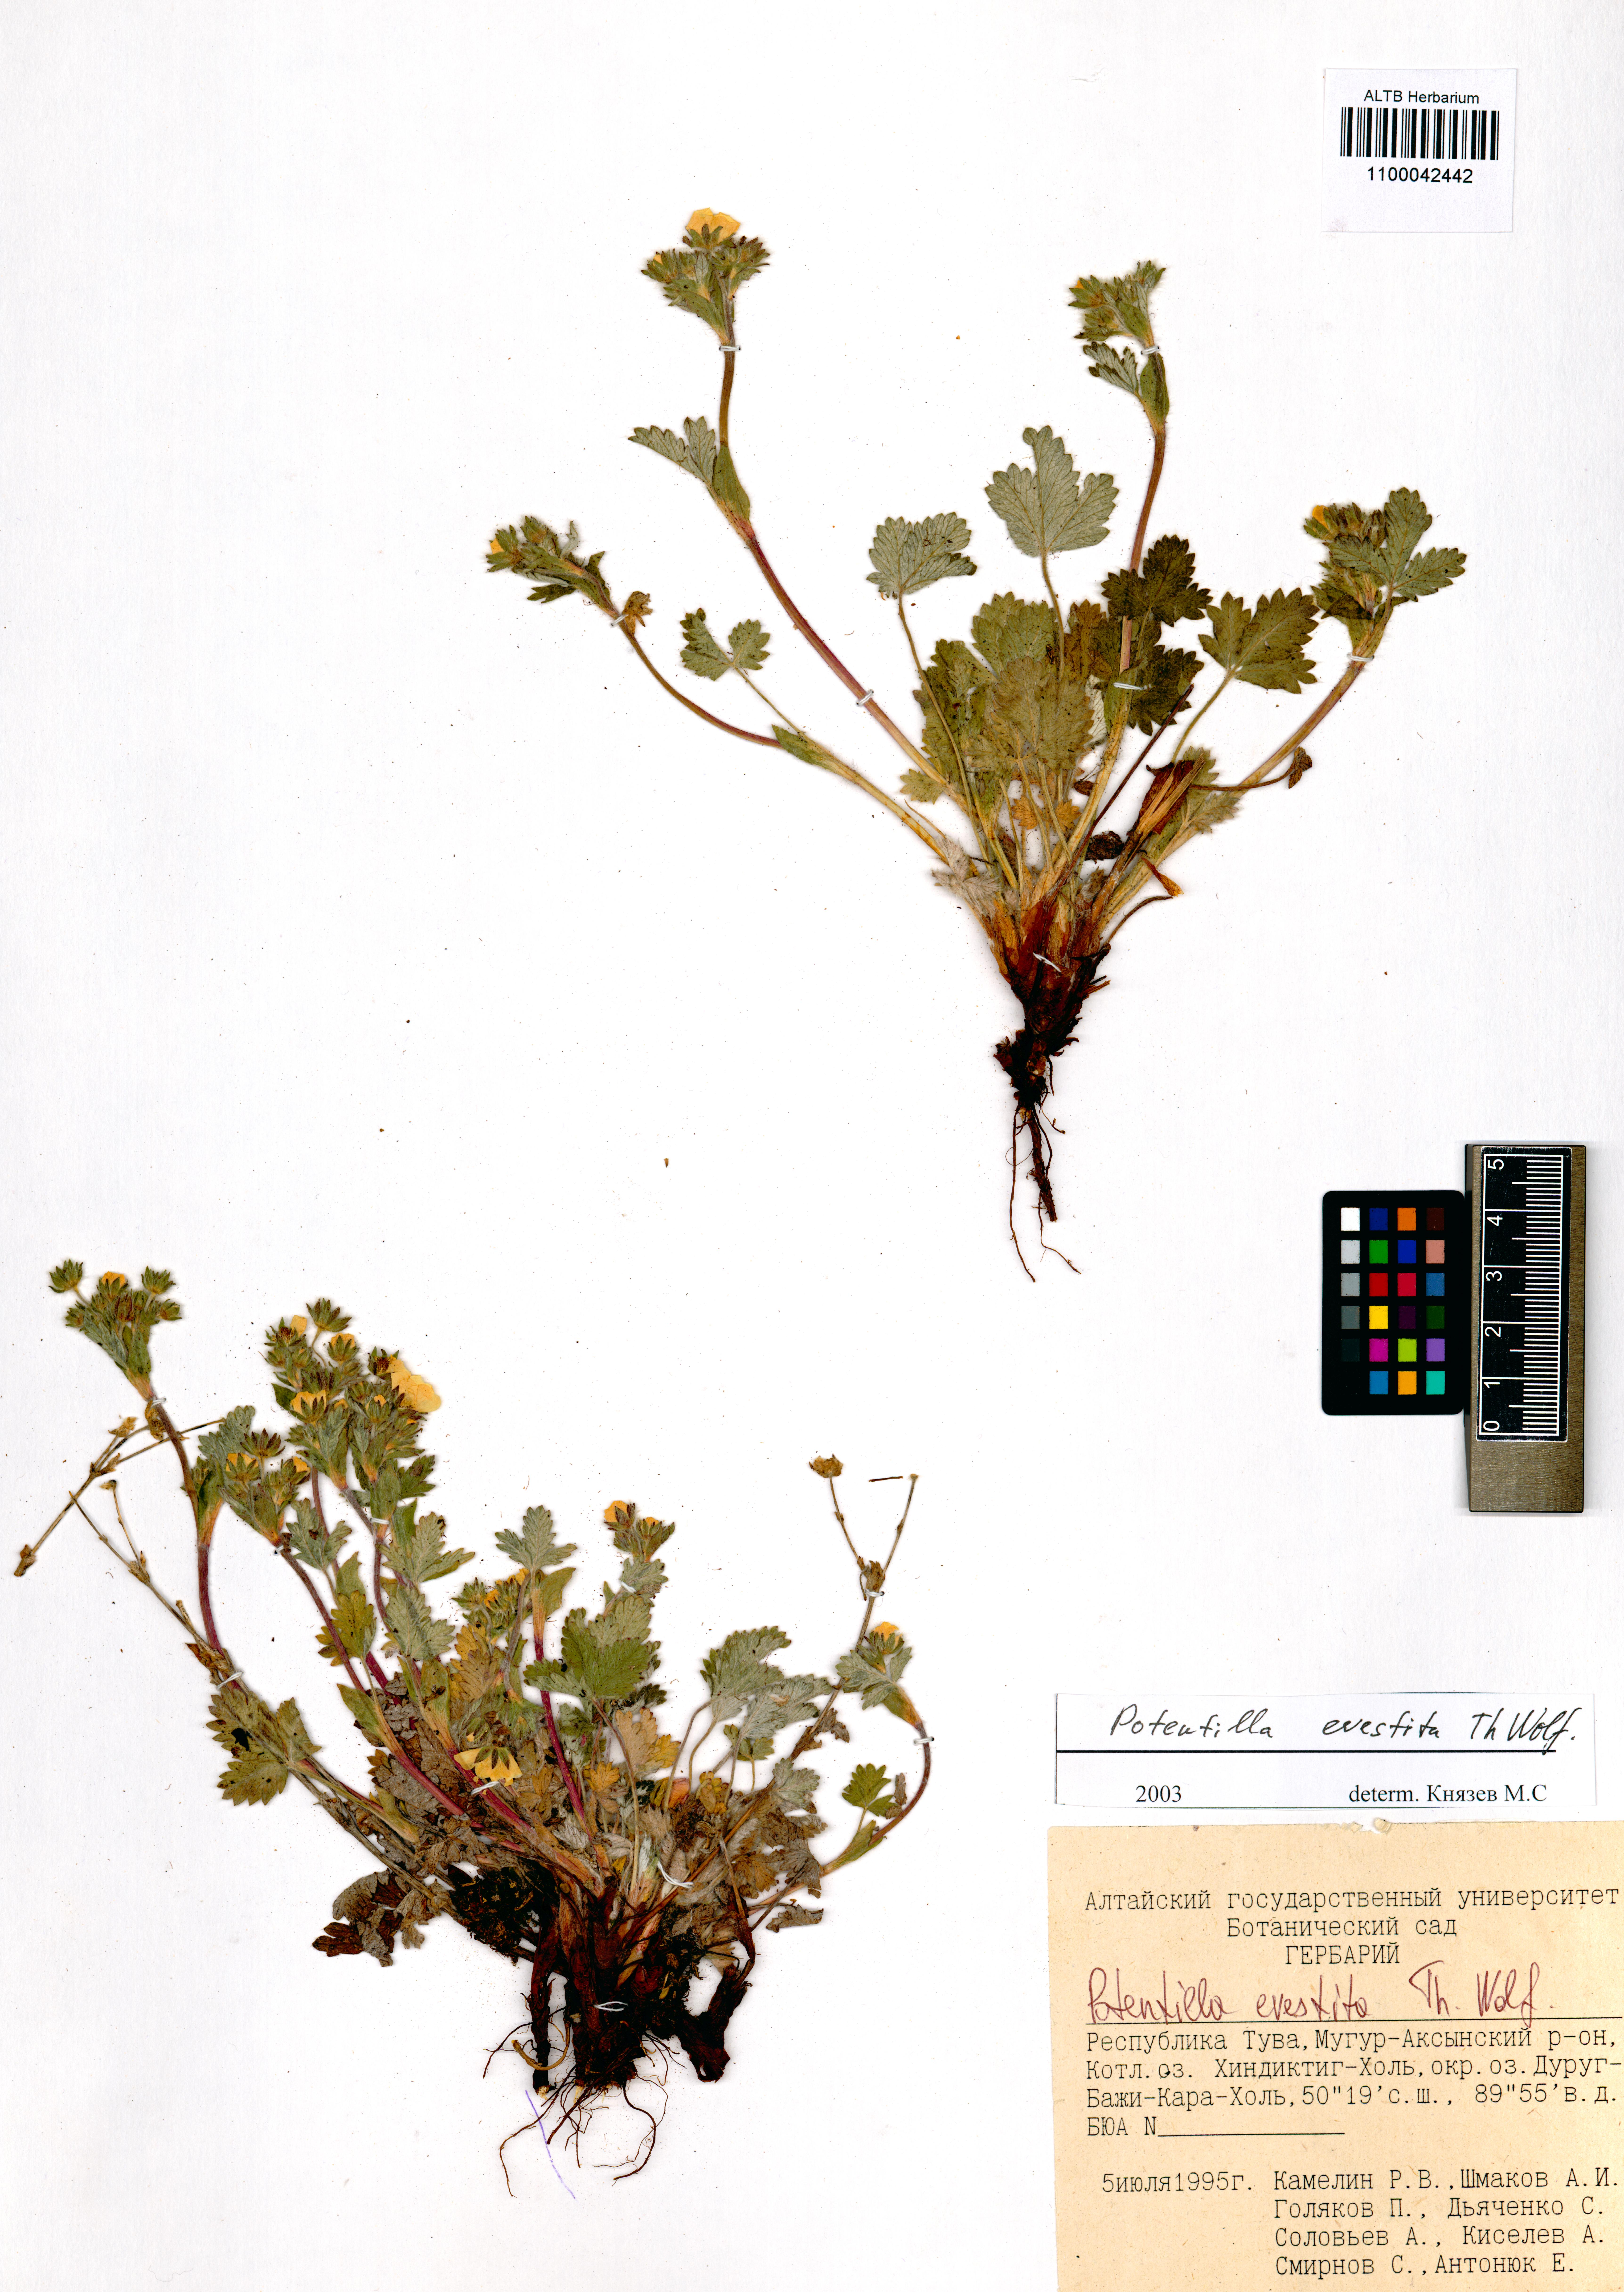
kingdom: Plantae
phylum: Tracheophyta
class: Magnoliopsida
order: Rosales
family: Rosaceae
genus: Potentilla
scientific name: Potentilla evestita
